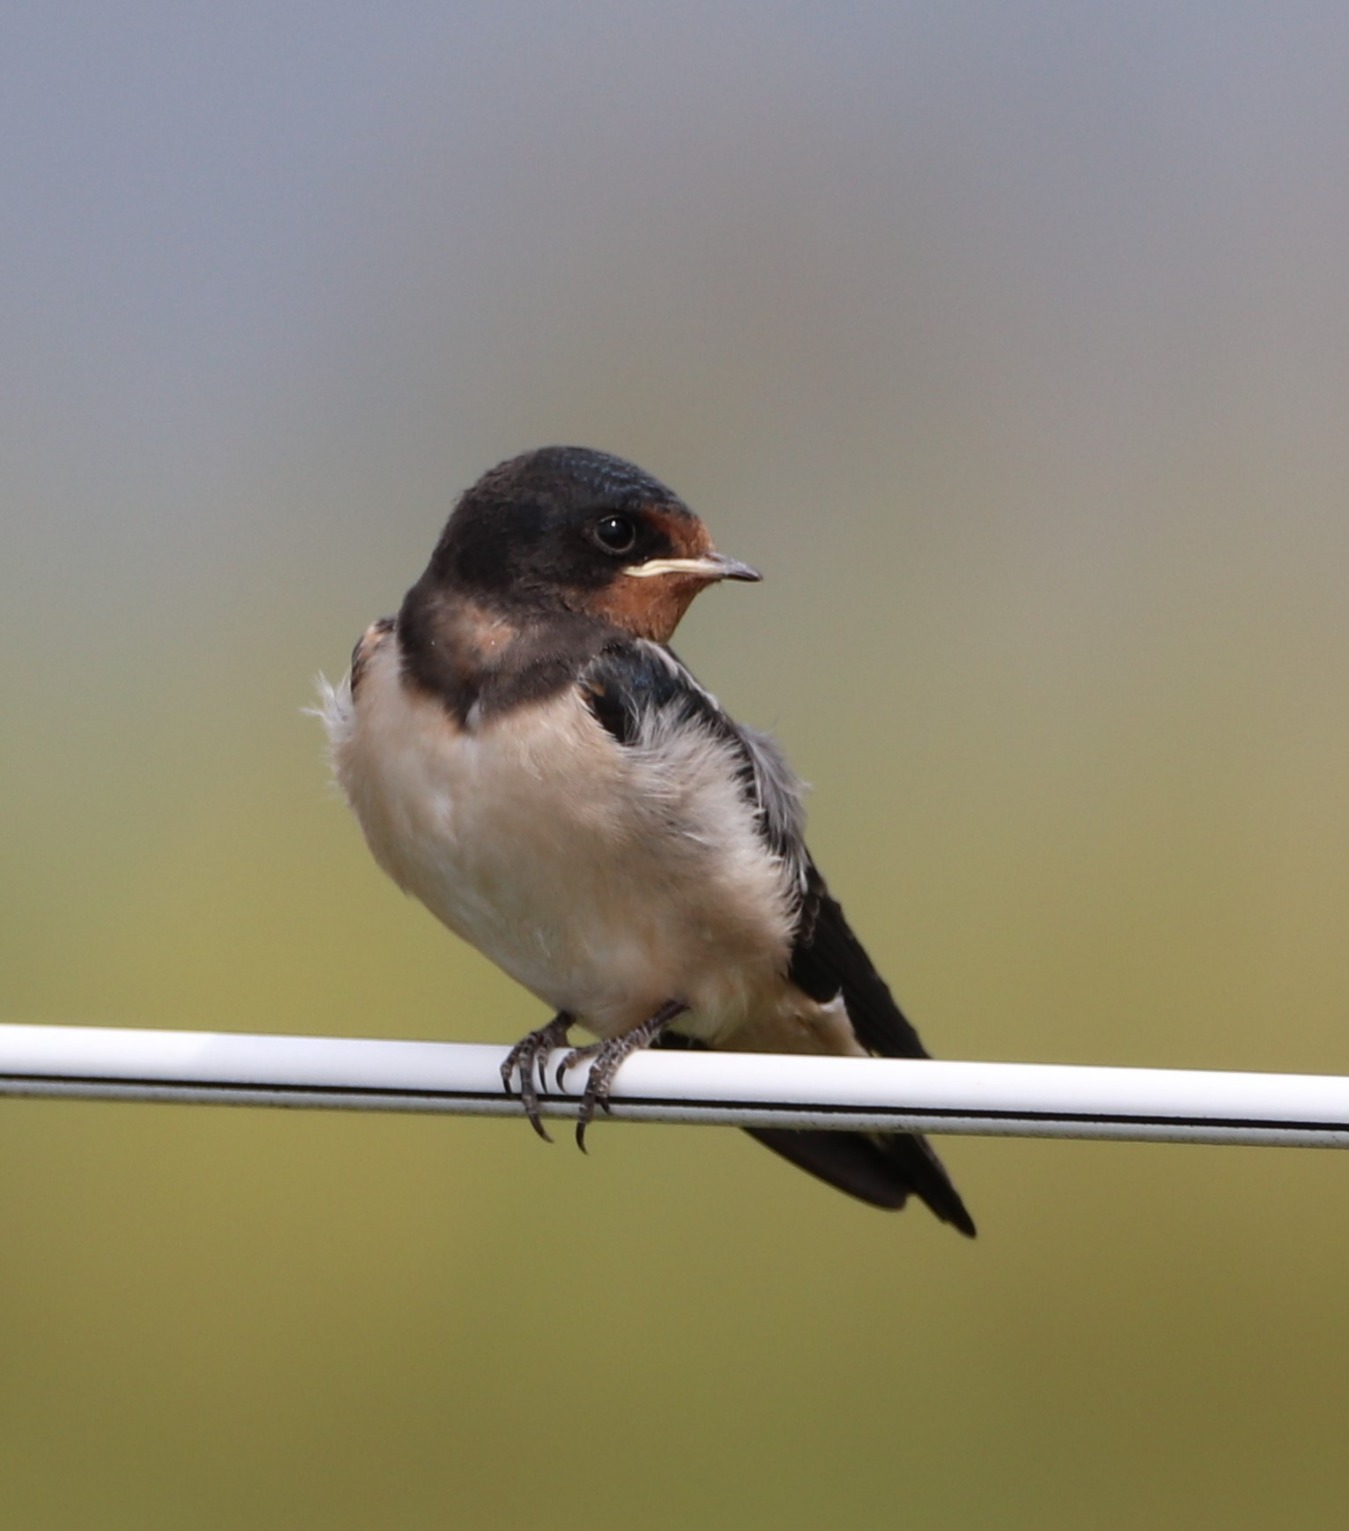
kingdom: Animalia
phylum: Chordata
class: Aves
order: Passeriformes
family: Hirundinidae
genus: Hirundo
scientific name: Hirundo rustica
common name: Landsvale
